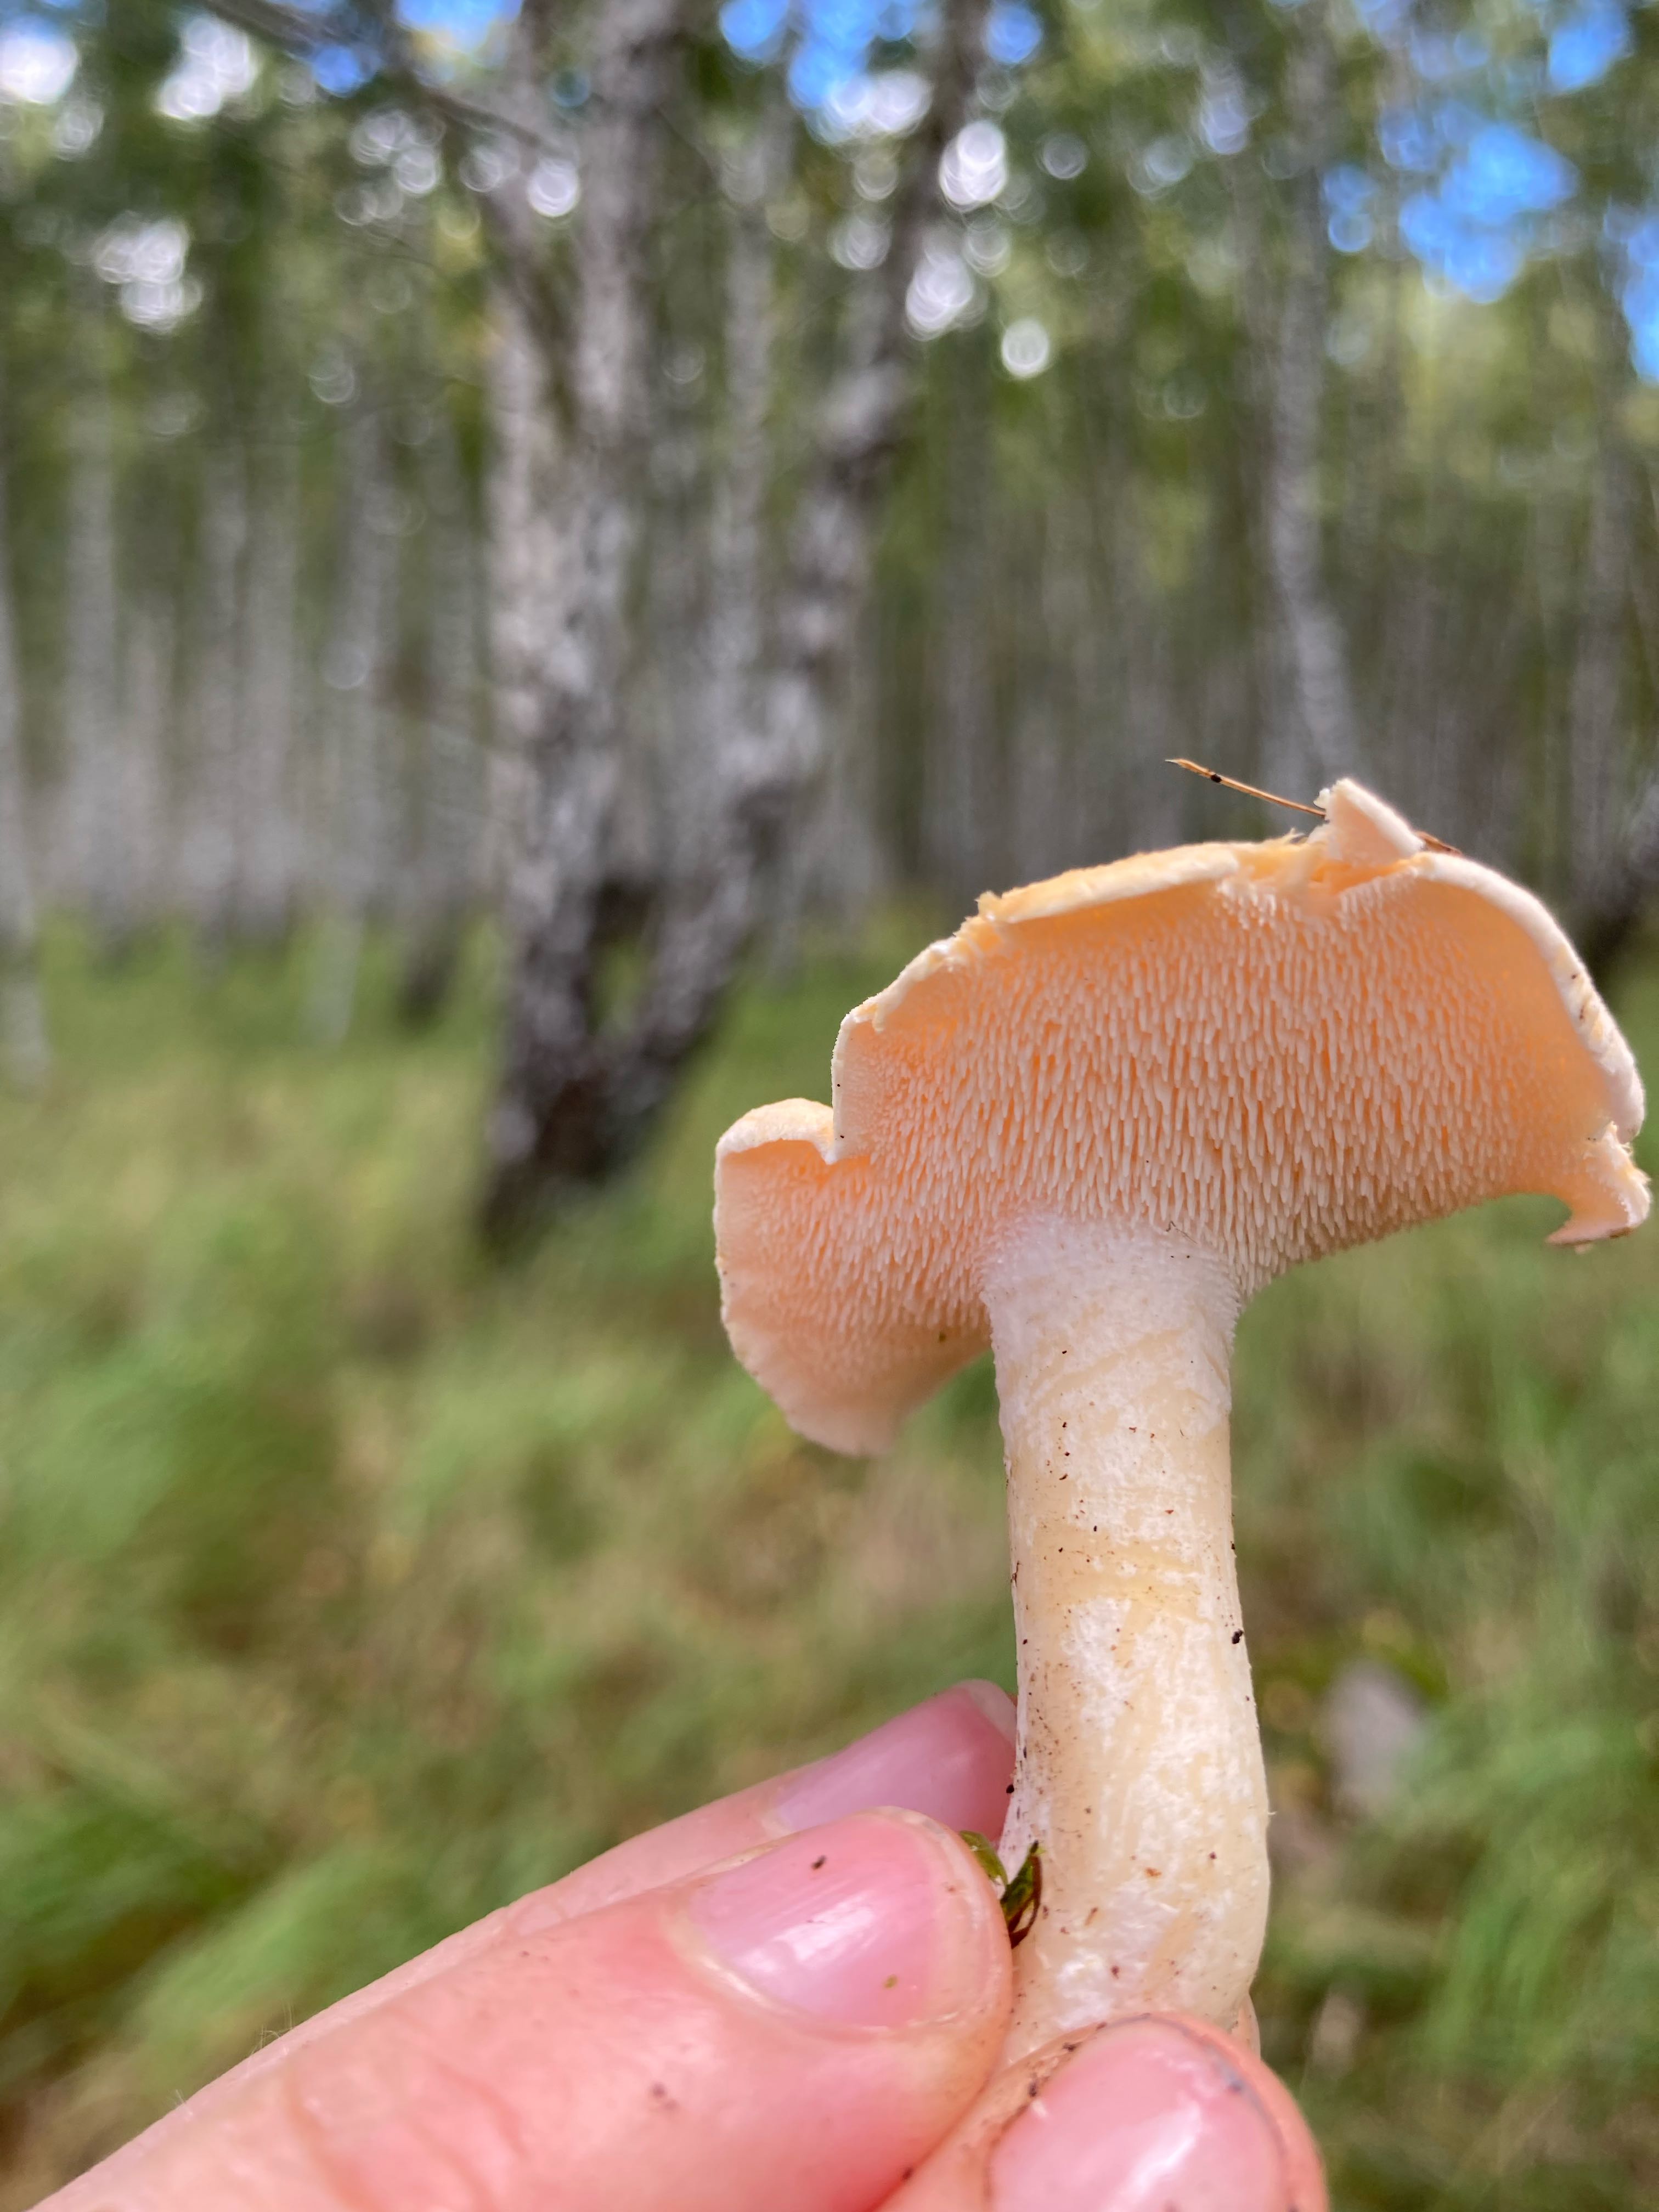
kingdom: Fungi
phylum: Basidiomycota
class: Agaricomycetes
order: Cantharellales
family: Hydnaceae
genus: Hydnum
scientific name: Hydnum
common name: pigsvamp
